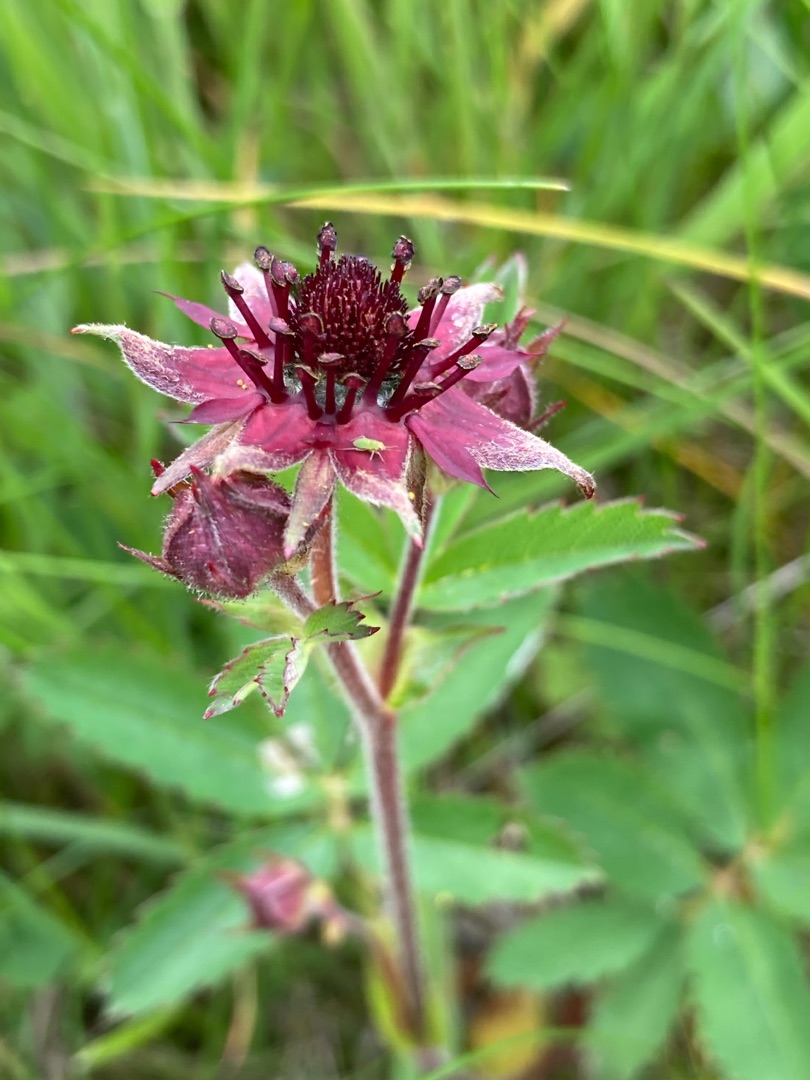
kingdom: Plantae
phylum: Tracheophyta
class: Magnoliopsida
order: Rosales
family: Rosaceae
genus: Comarum
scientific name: Comarum palustre
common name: Kragefod
